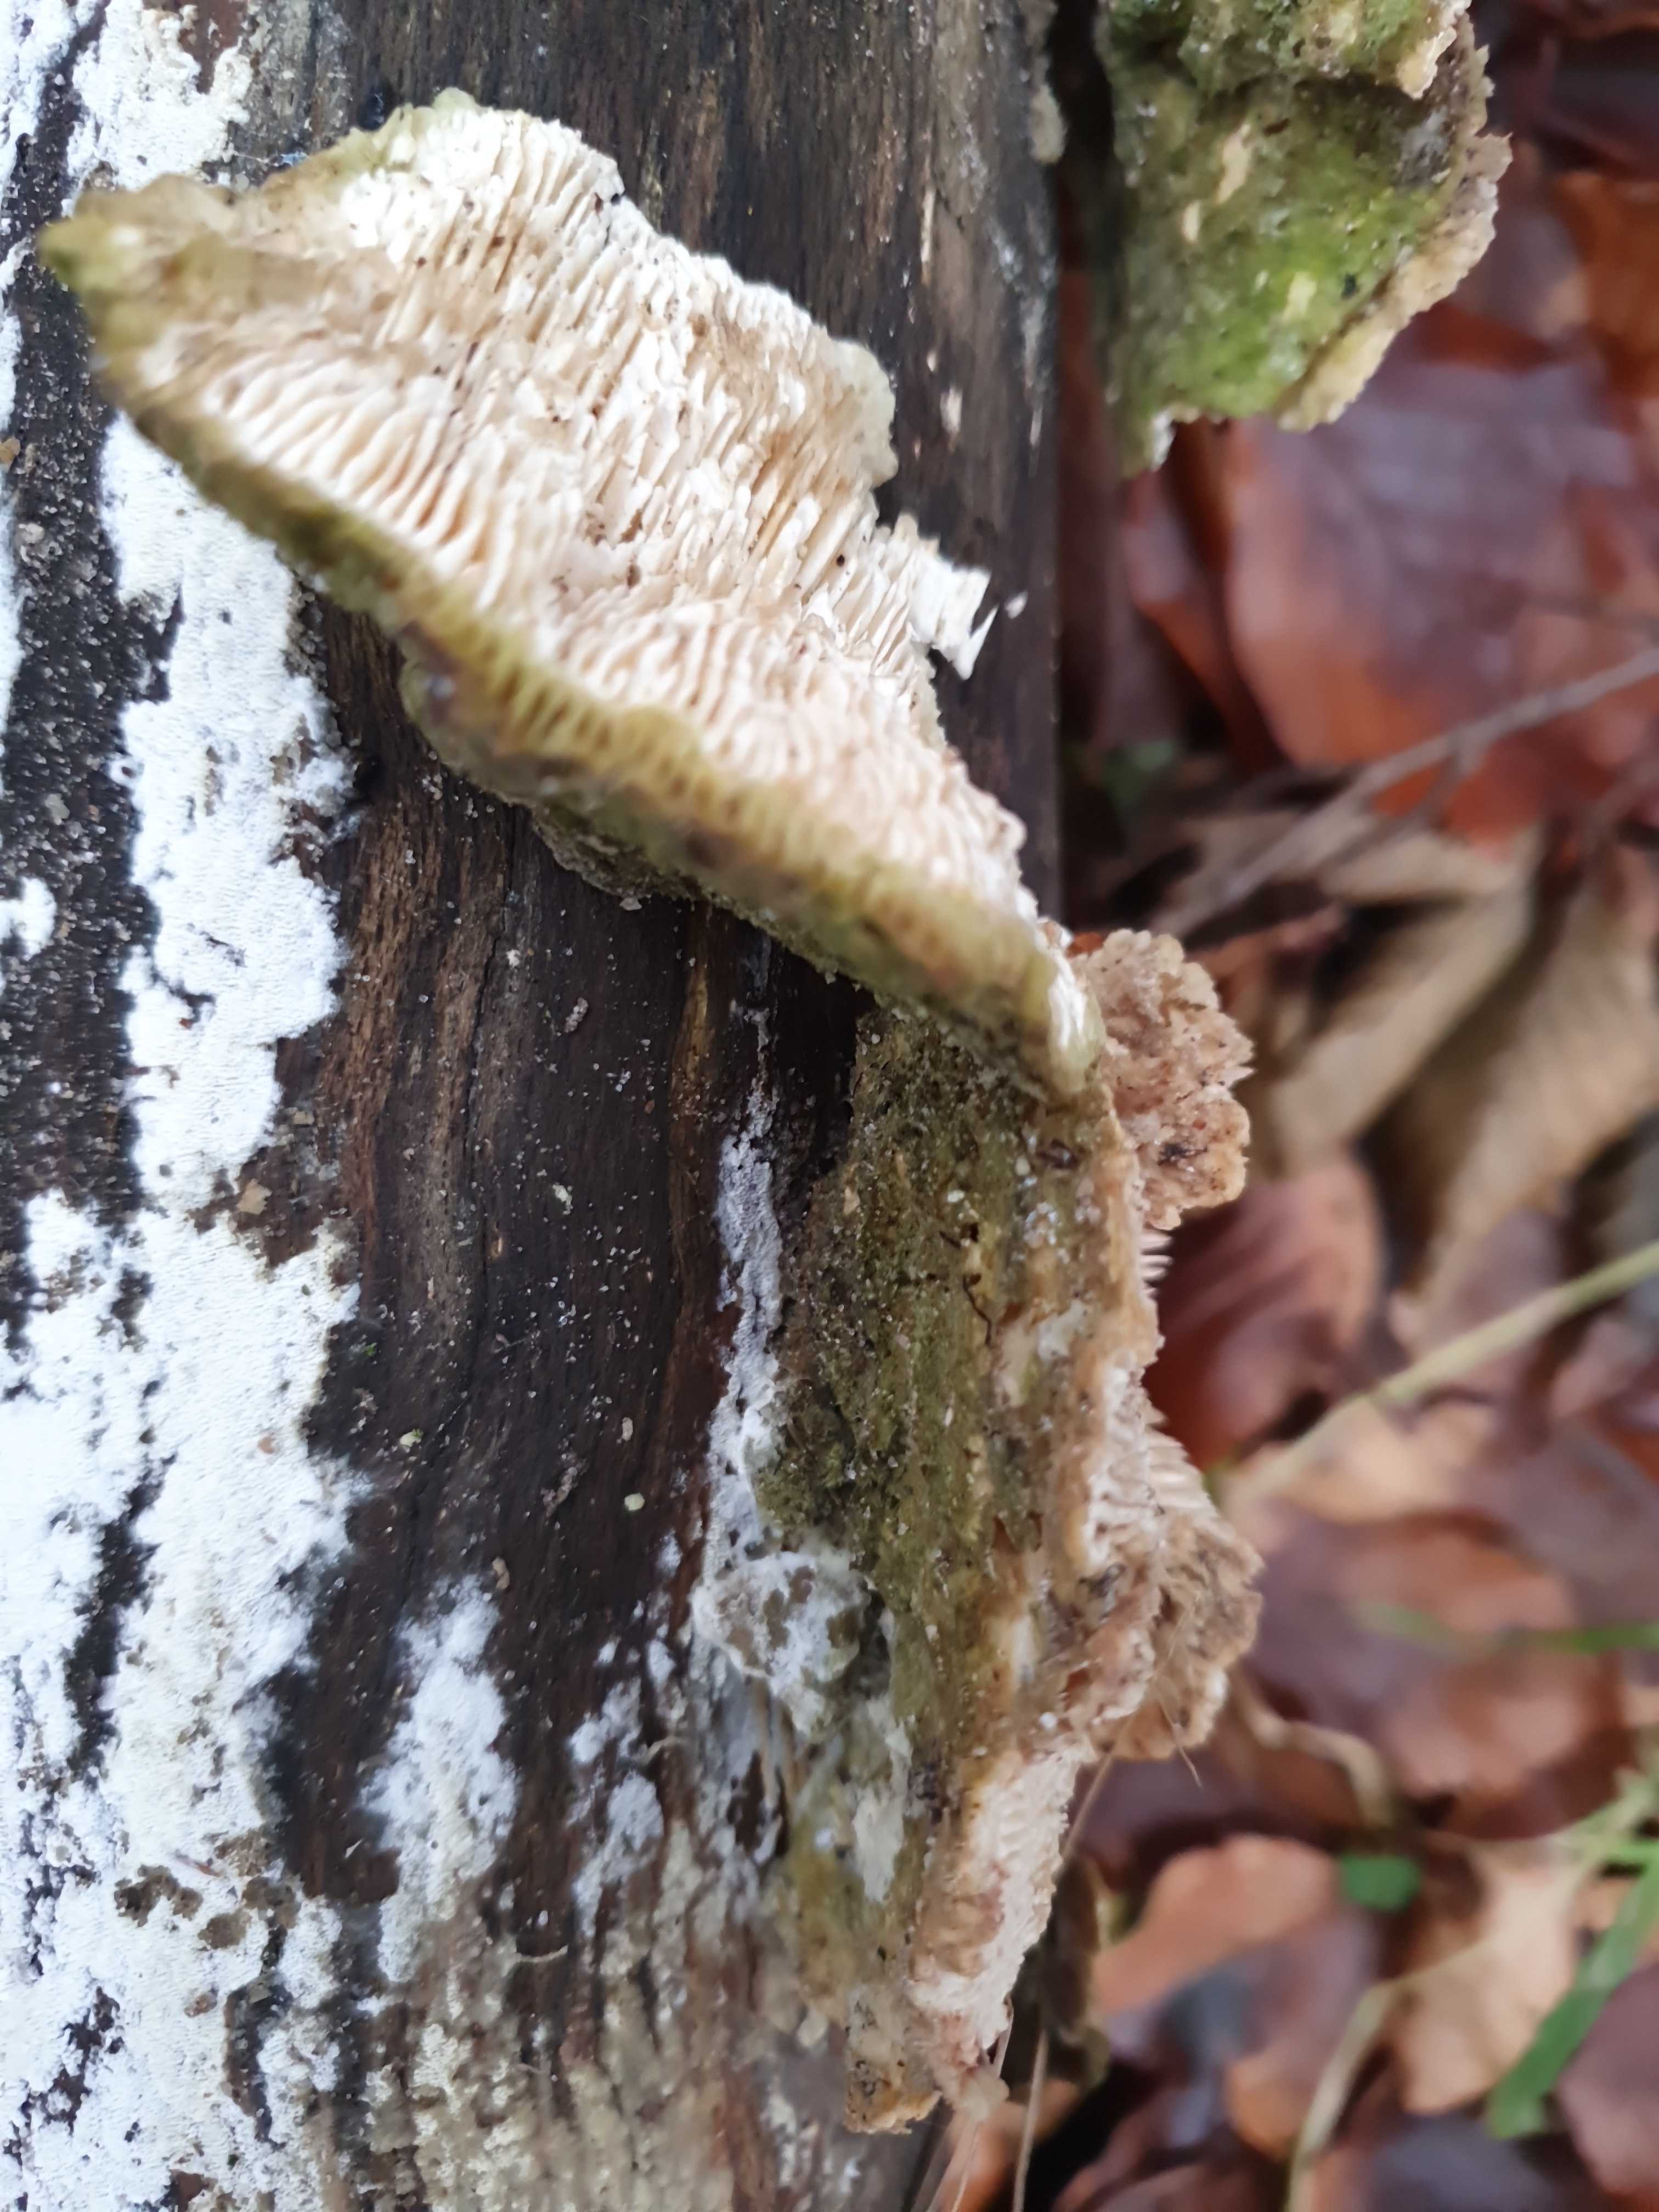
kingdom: Fungi
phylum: Basidiomycota
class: Agaricomycetes
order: Polyporales
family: Polyporaceae
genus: Lenzites
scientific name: Lenzites betulinus
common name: birke-læderporesvamp
